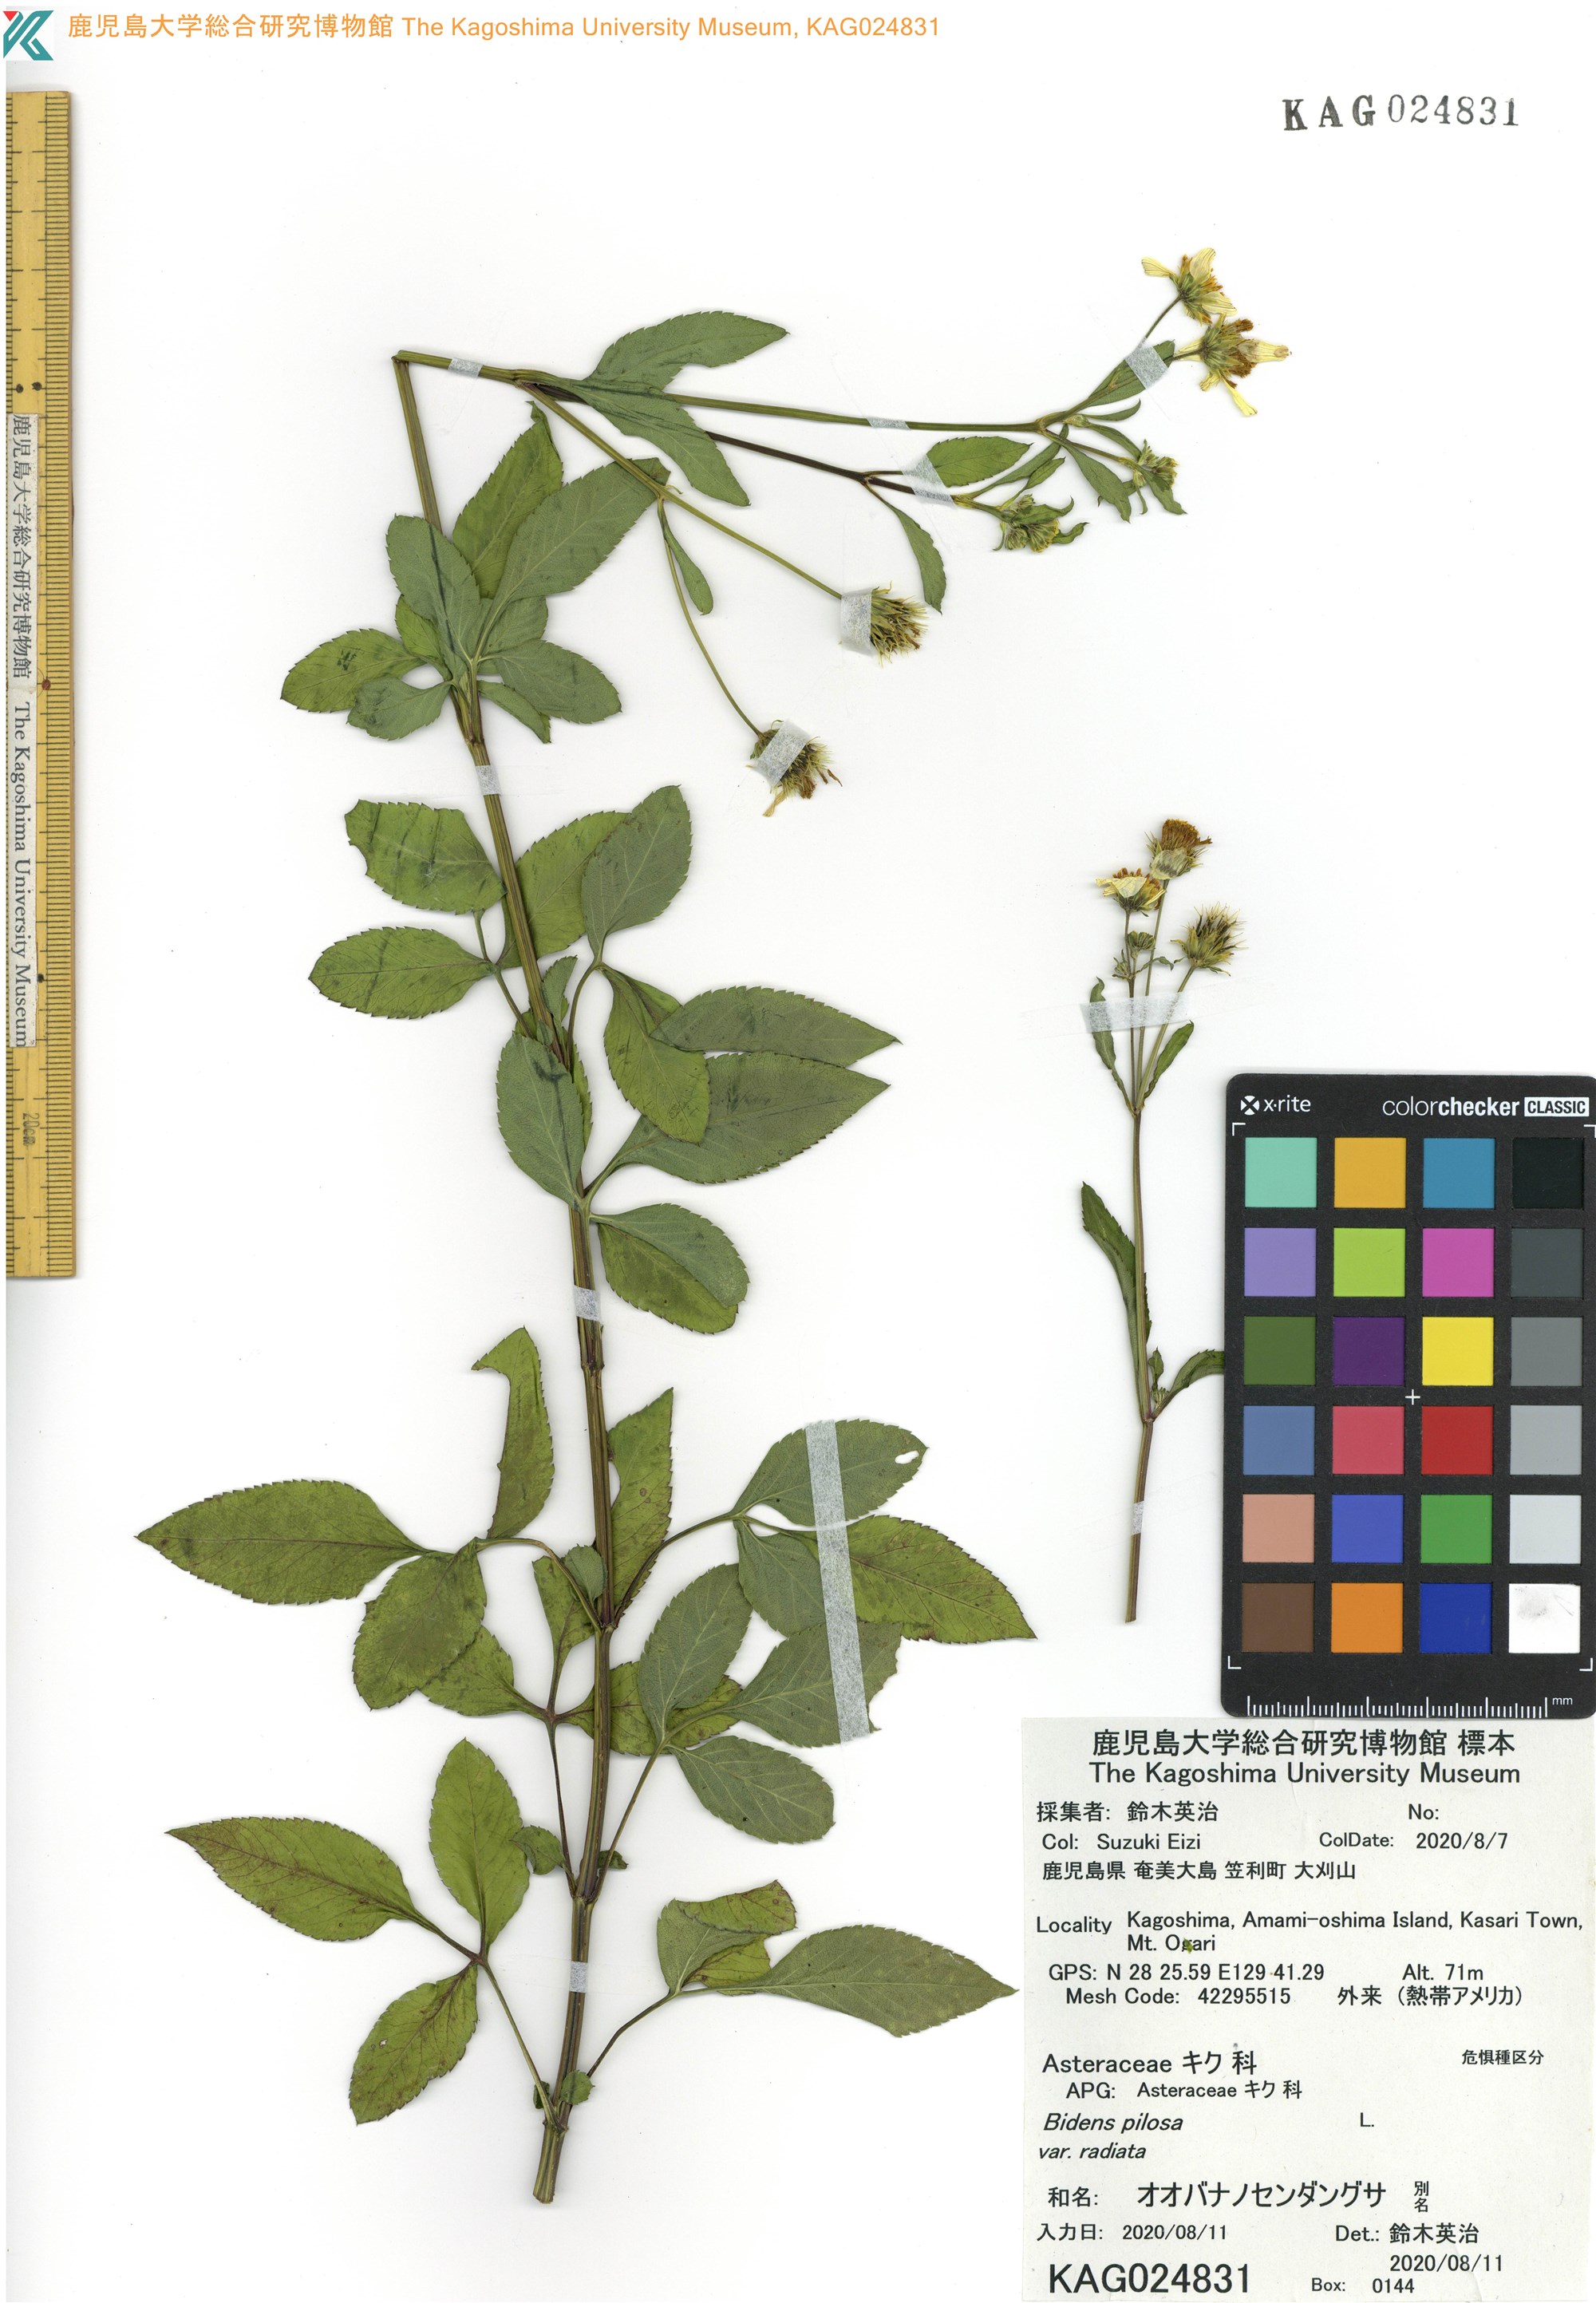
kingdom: Plantae
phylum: Tracheophyta
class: Magnoliopsida
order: Asterales
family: Asteraceae
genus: Bidens
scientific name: Bidens pilosa
